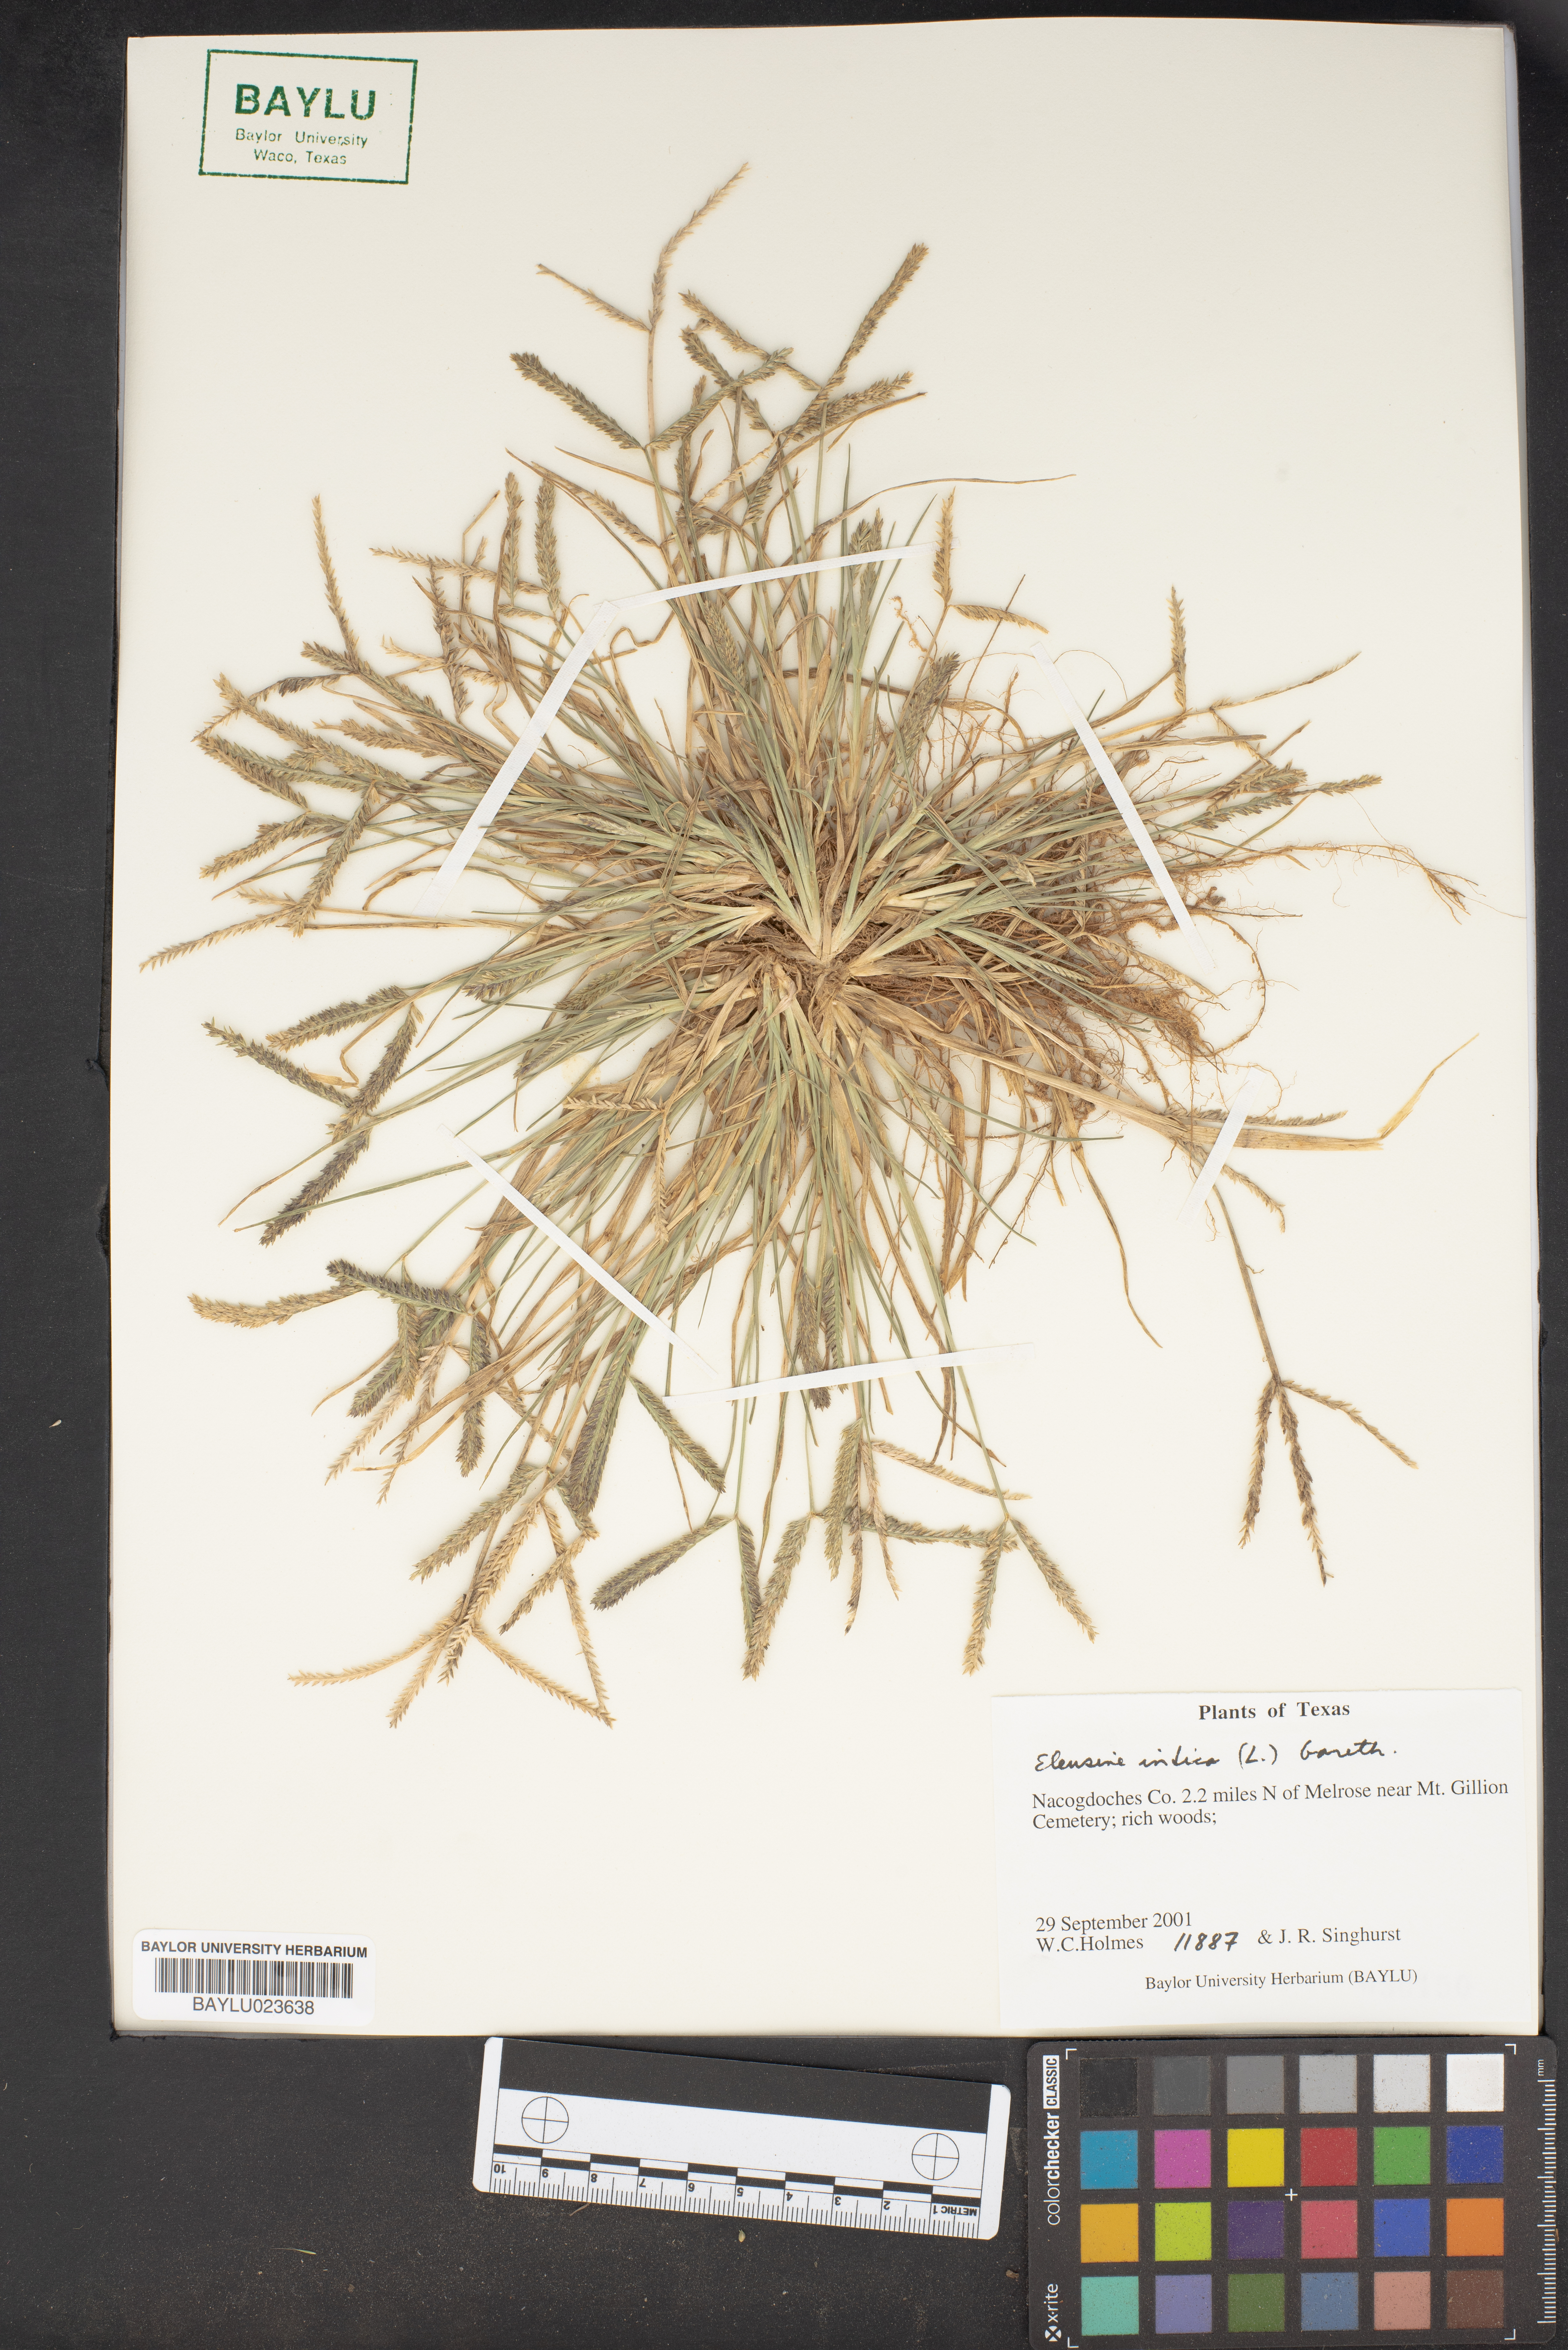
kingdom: Plantae
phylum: Tracheophyta
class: Liliopsida
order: Poales
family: Poaceae
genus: Eleusine
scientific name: Eleusine indica
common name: Yard-grass
